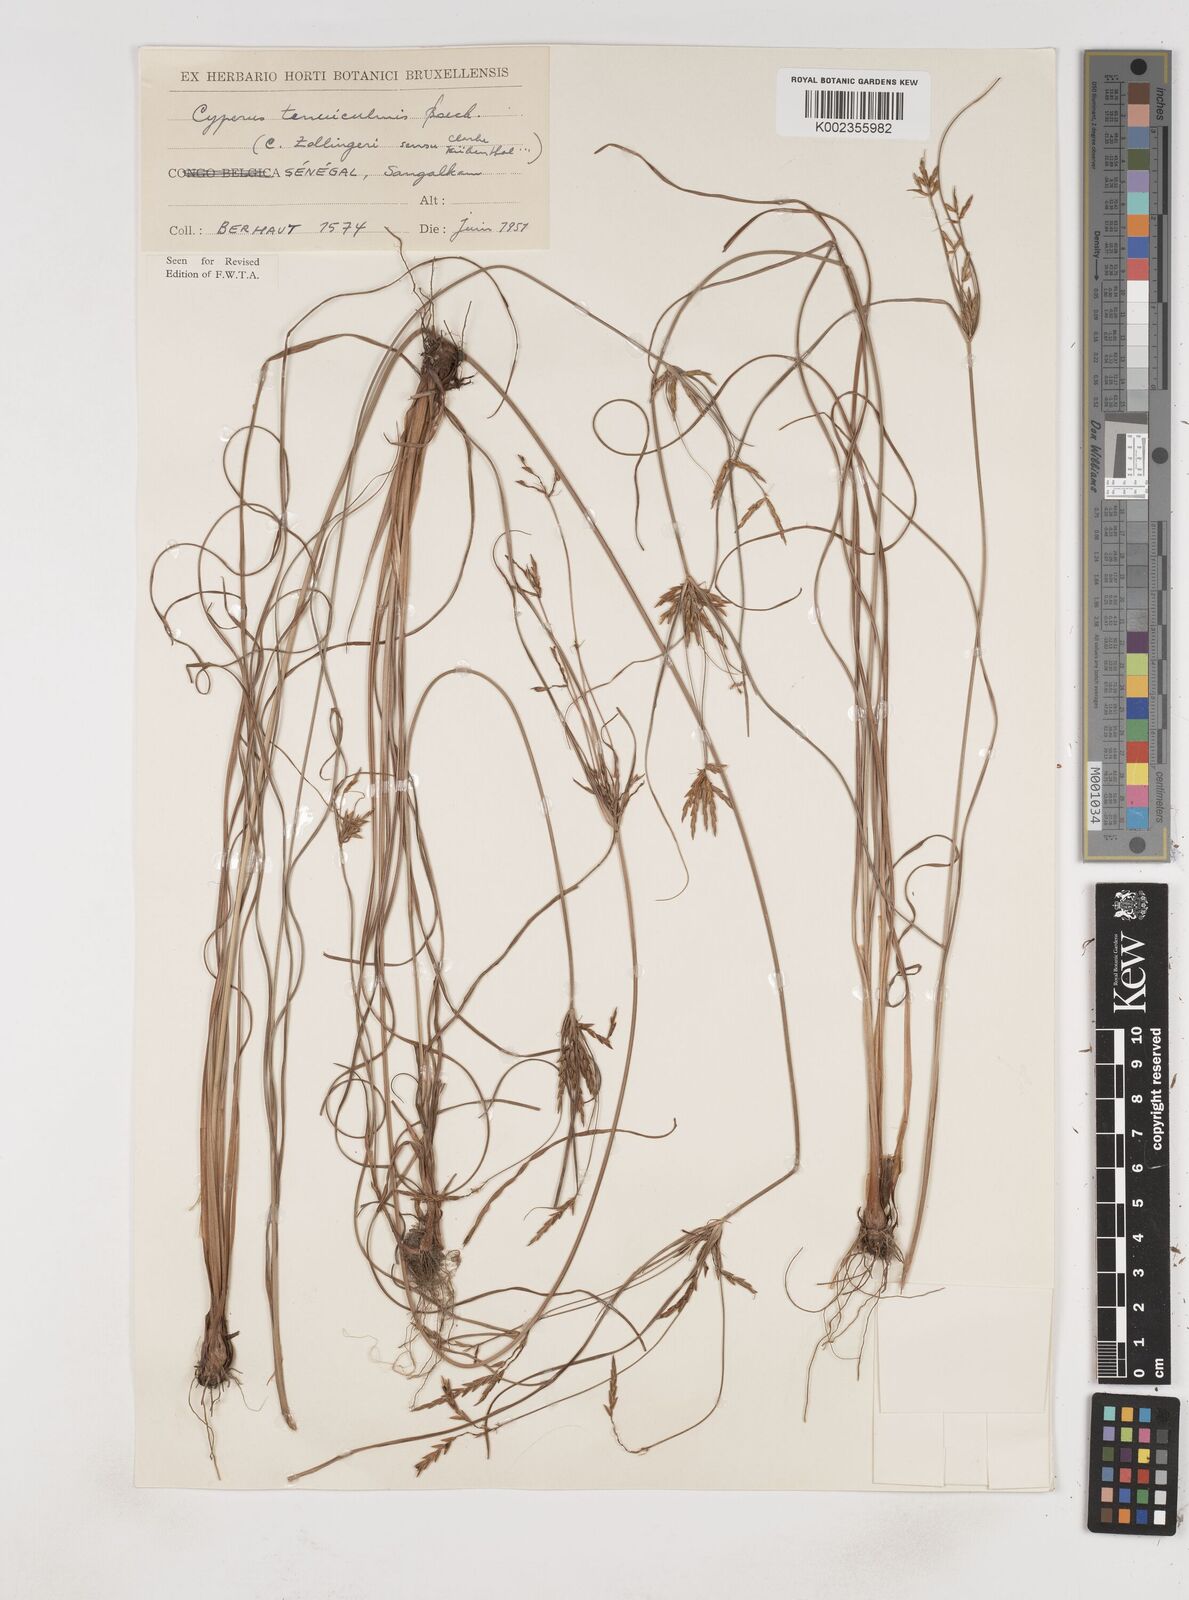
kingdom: Plantae
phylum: Tracheophyta
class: Liliopsida
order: Poales
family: Cyperaceae
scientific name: Cyperaceae
